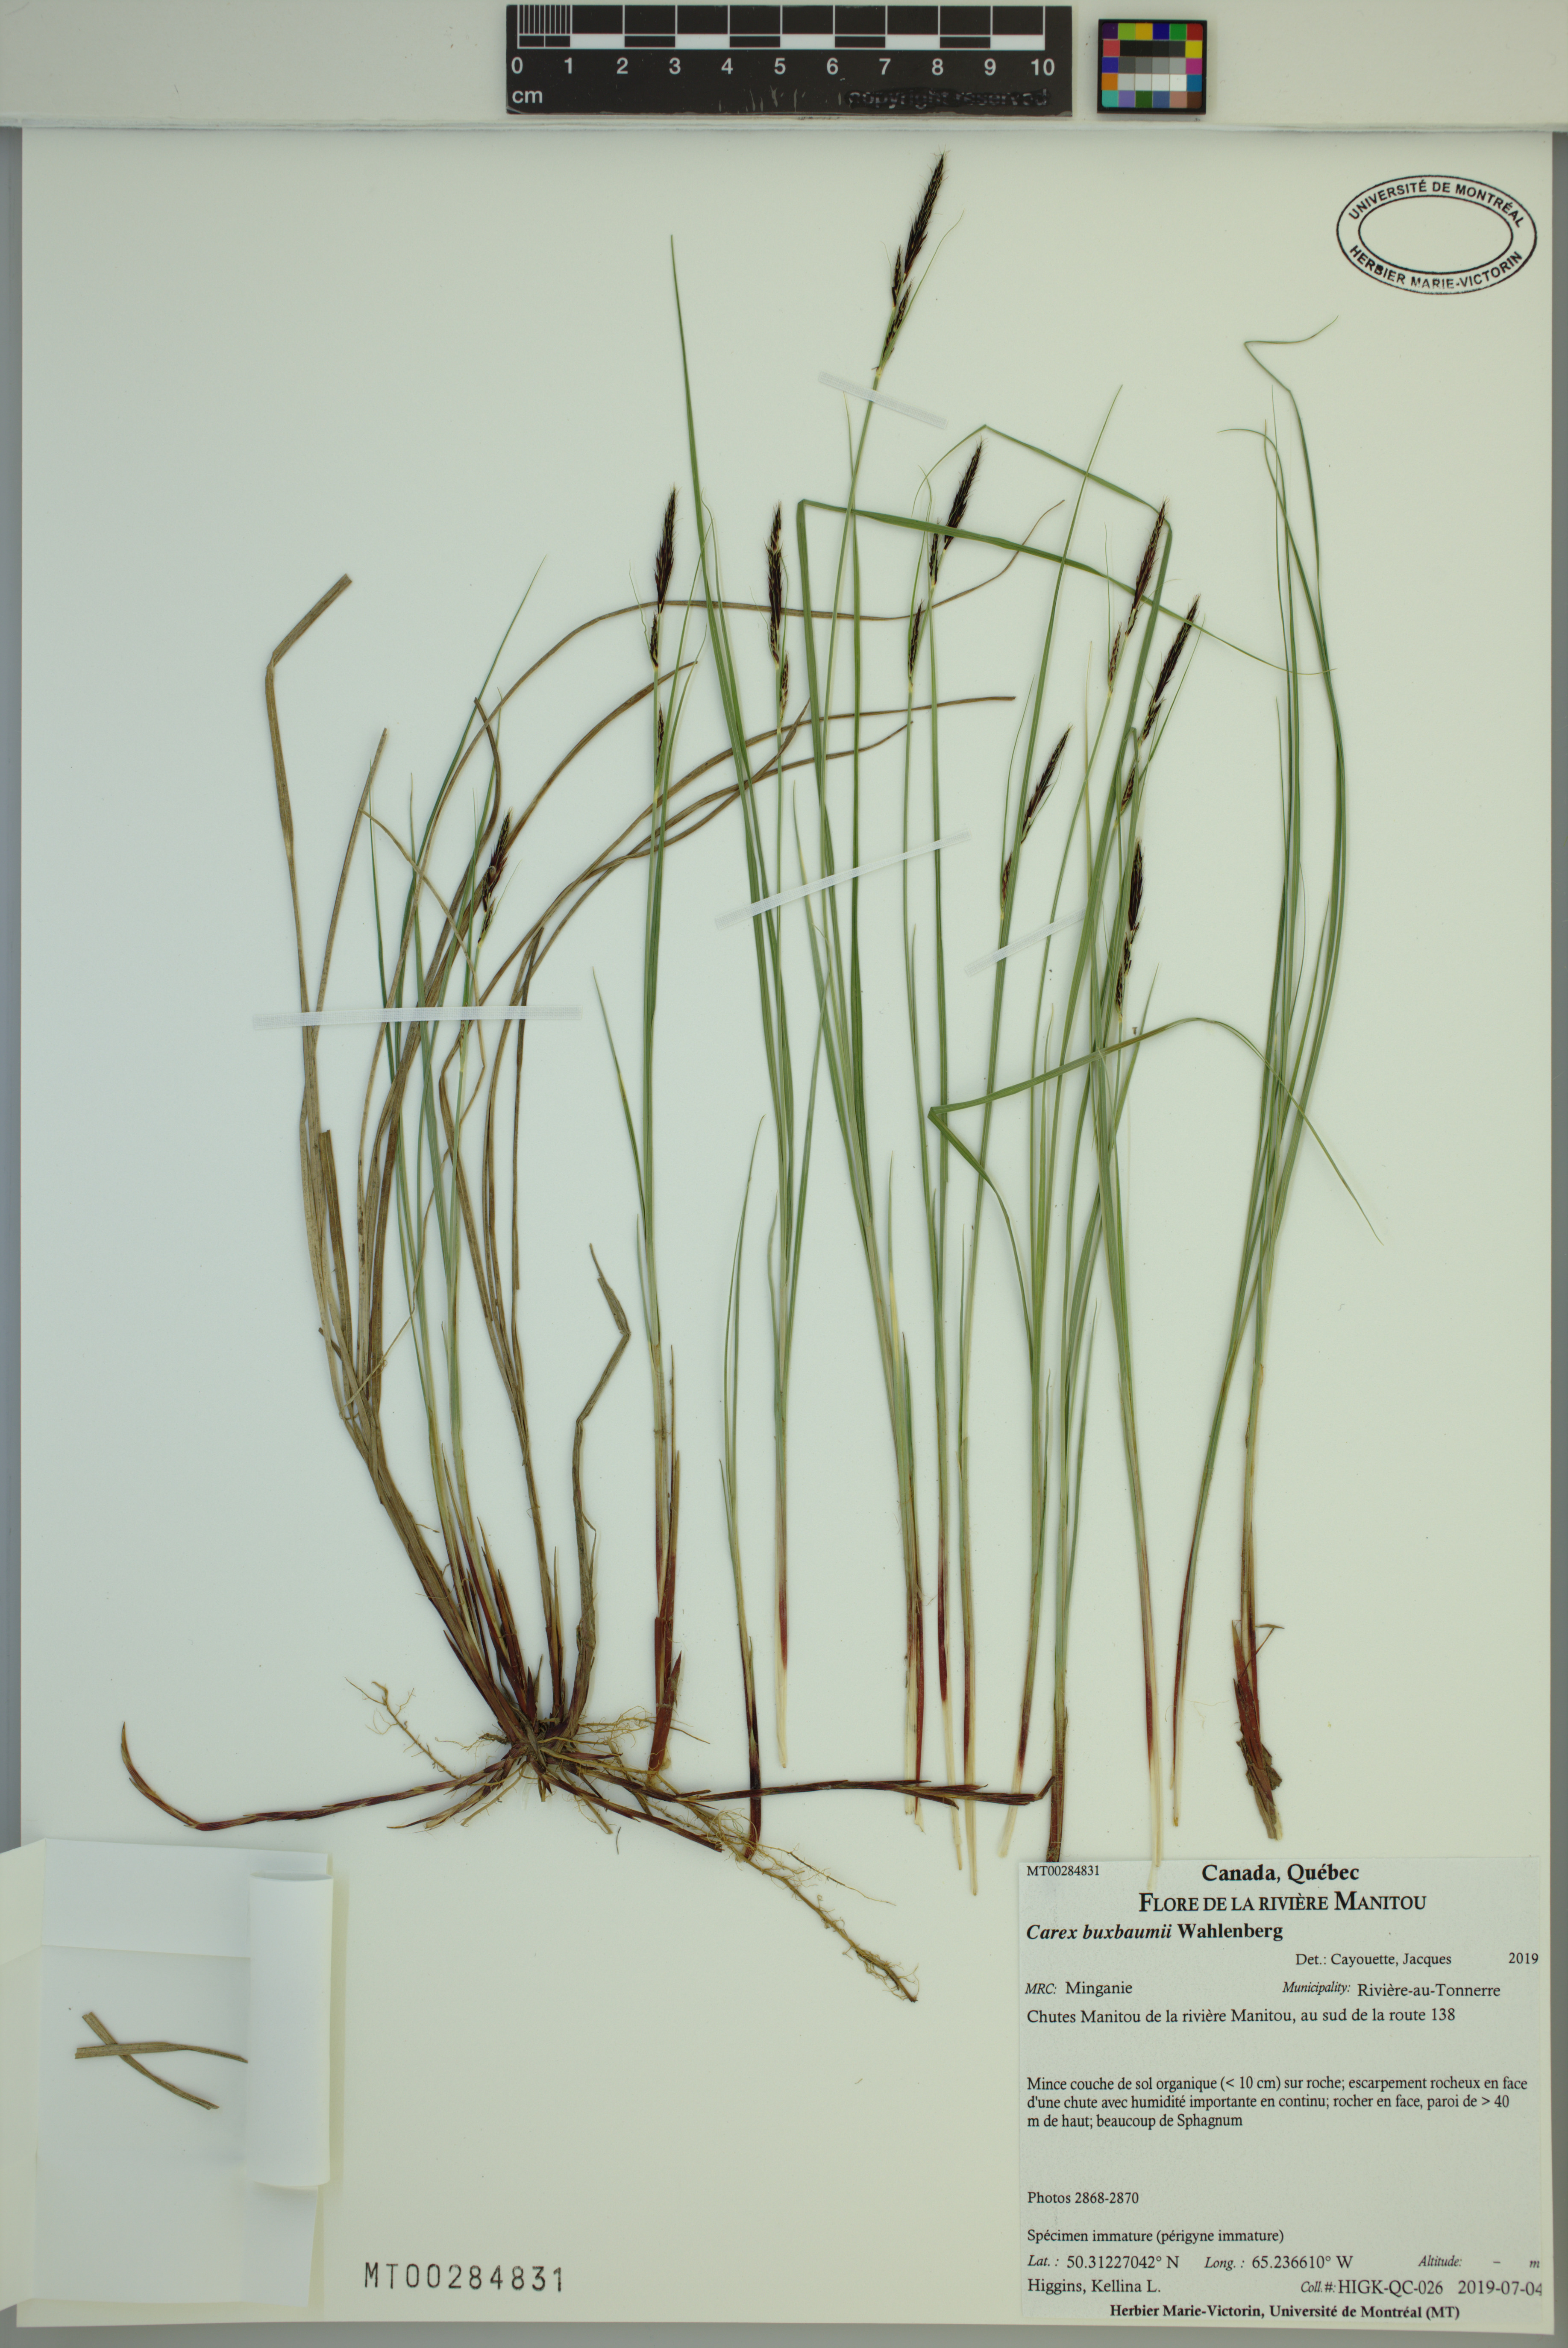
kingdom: Plantae
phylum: Tracheophyta
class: Liliopsida
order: Poales
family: Cyperaceae
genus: Carex
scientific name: Carex buxbaumii
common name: Club sedge
